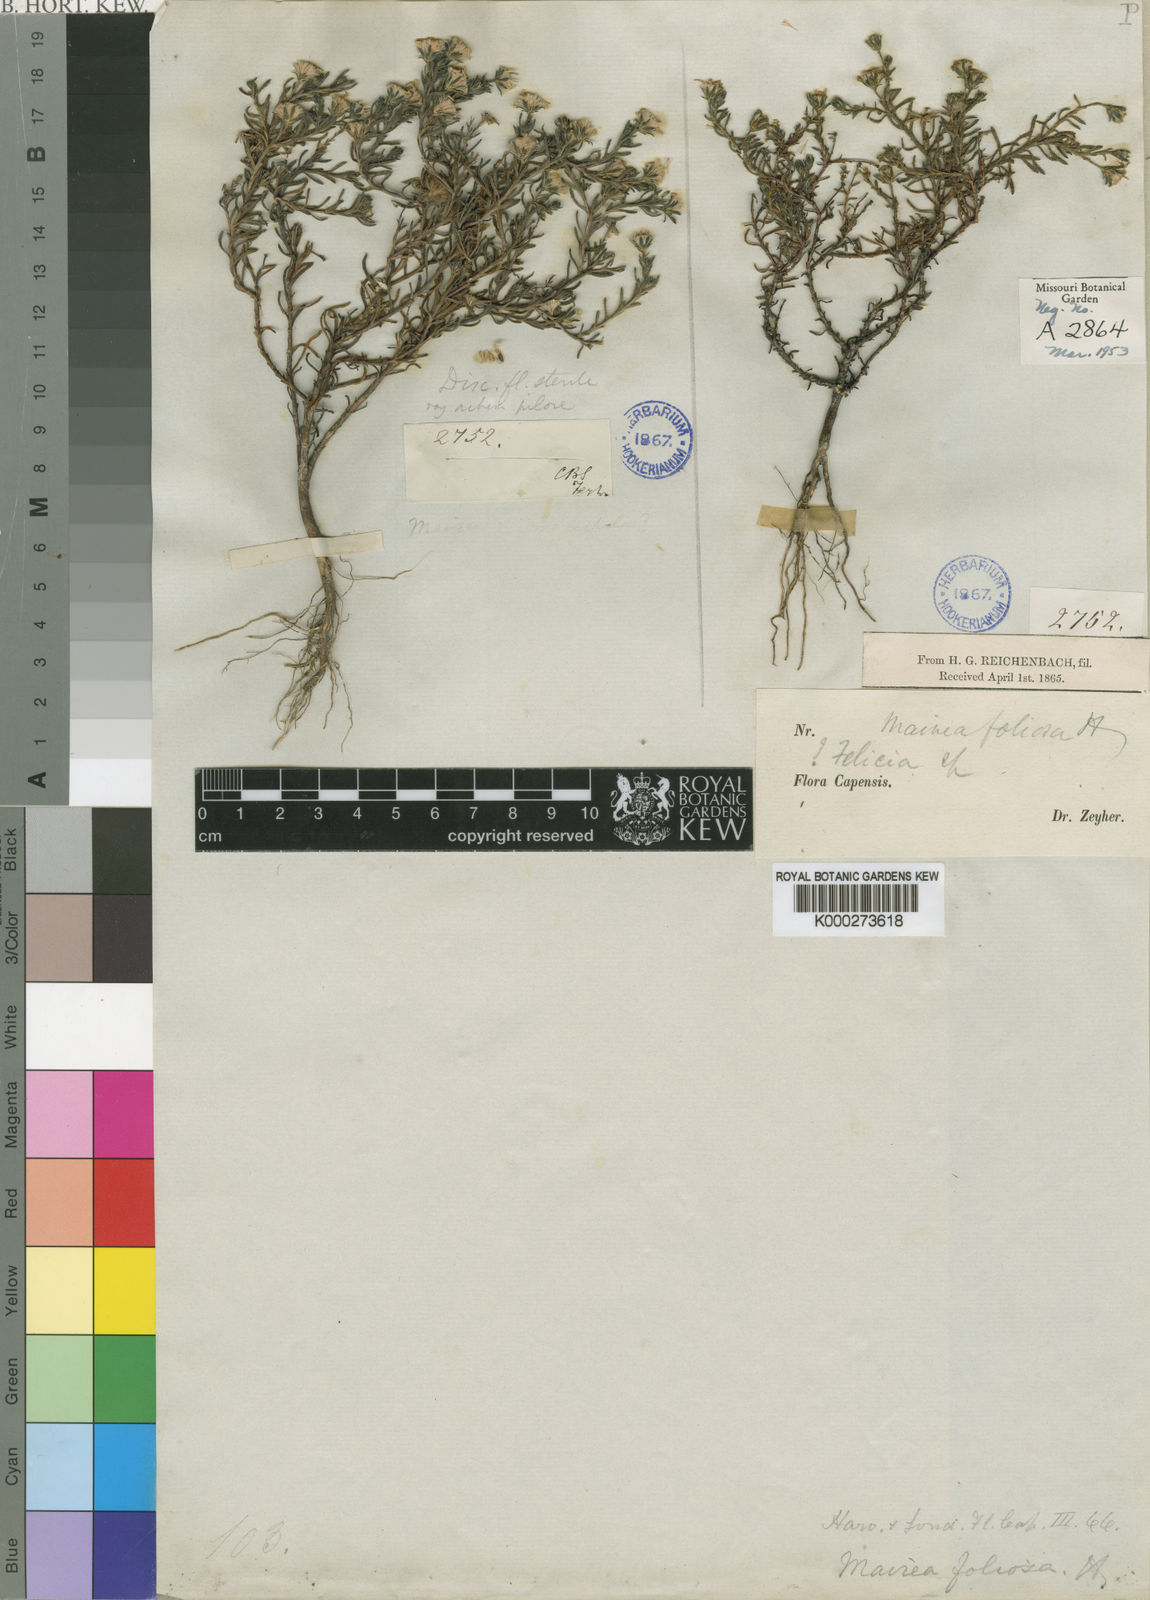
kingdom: Plantae
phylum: Tracheophyta
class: Magnoliopsida
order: Asterales
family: Asteraceae
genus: Zyrphelis
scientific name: Zyrphelis foliosa
